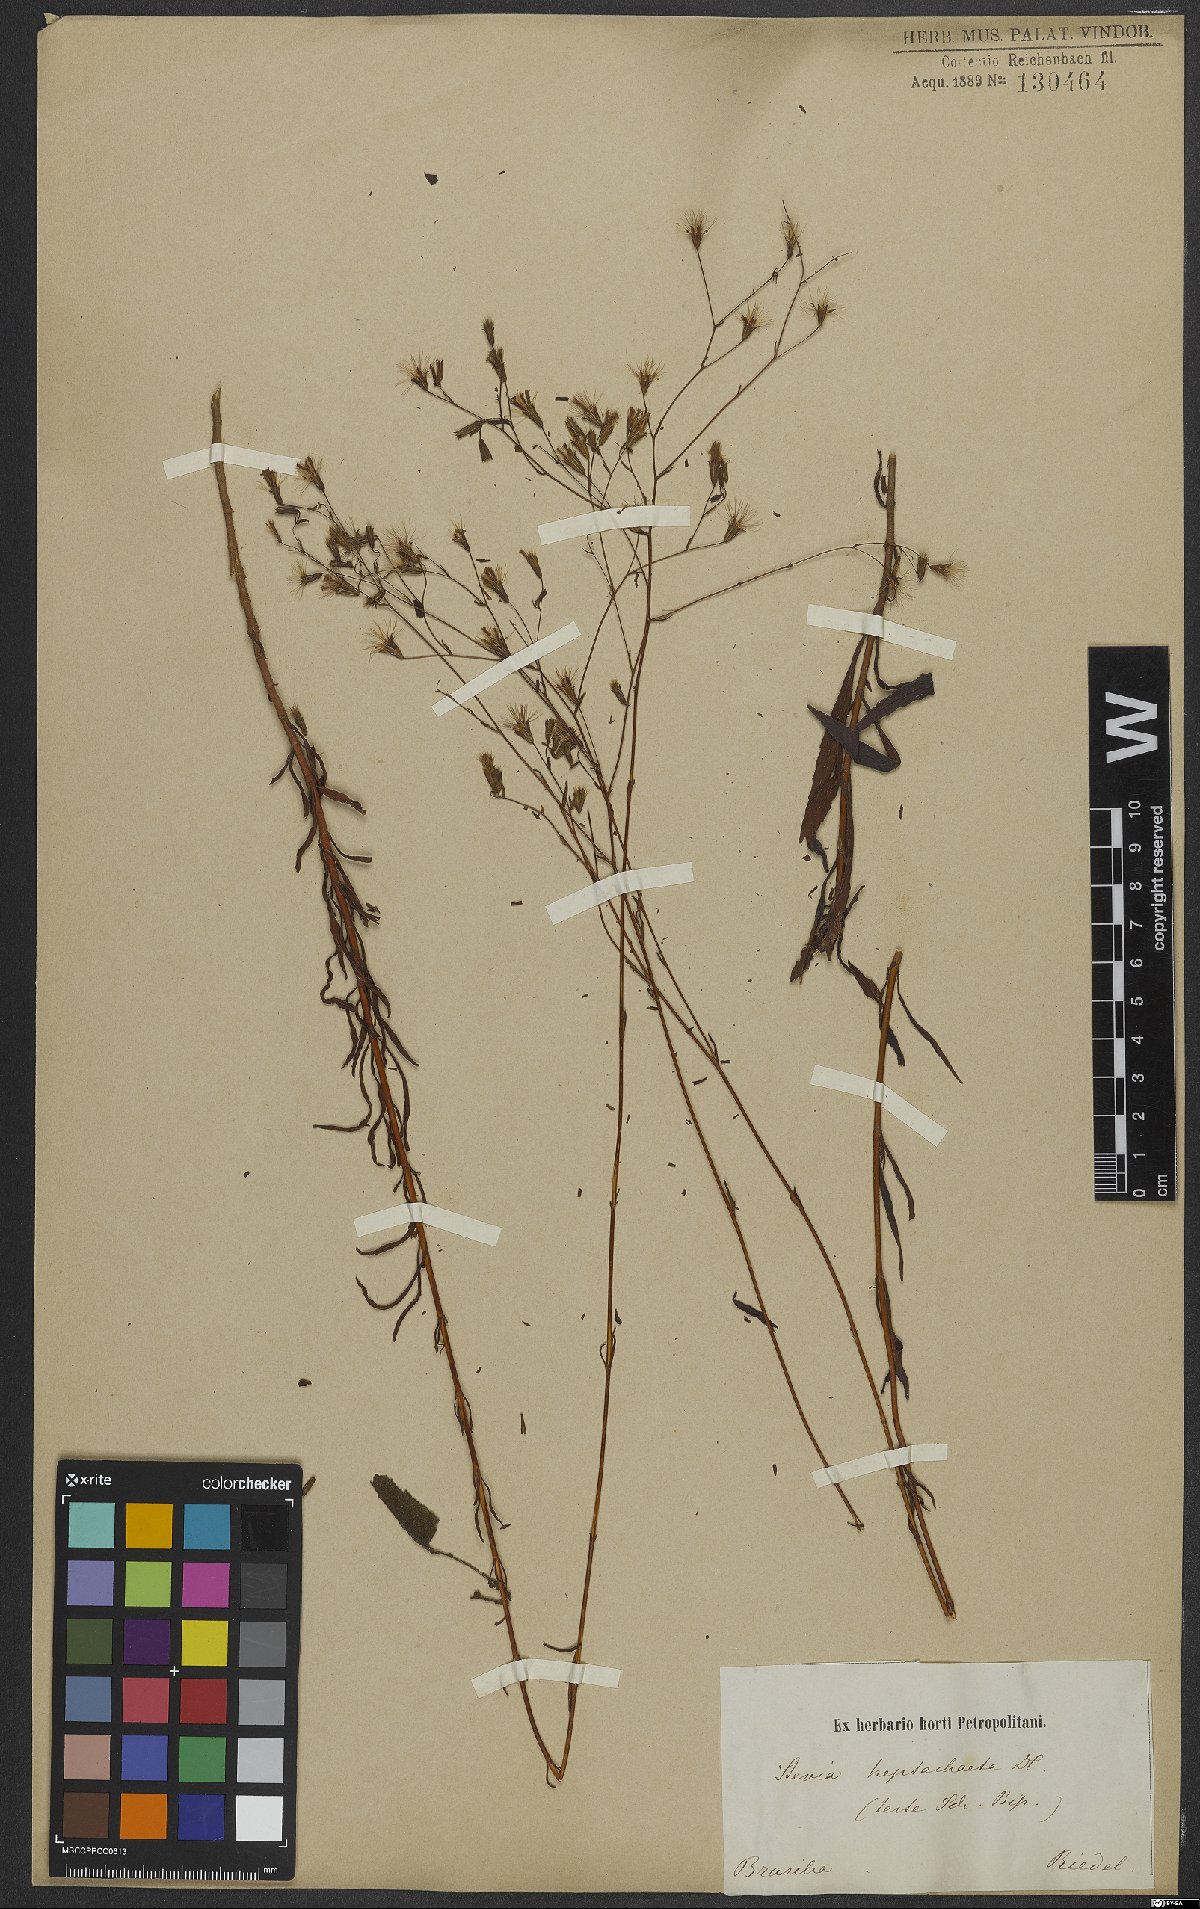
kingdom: Plantae
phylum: Tracheophyta
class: Magnoliopsida
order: Asterales
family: Asteraceae
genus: Stevia
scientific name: Stevia heptachaeta
